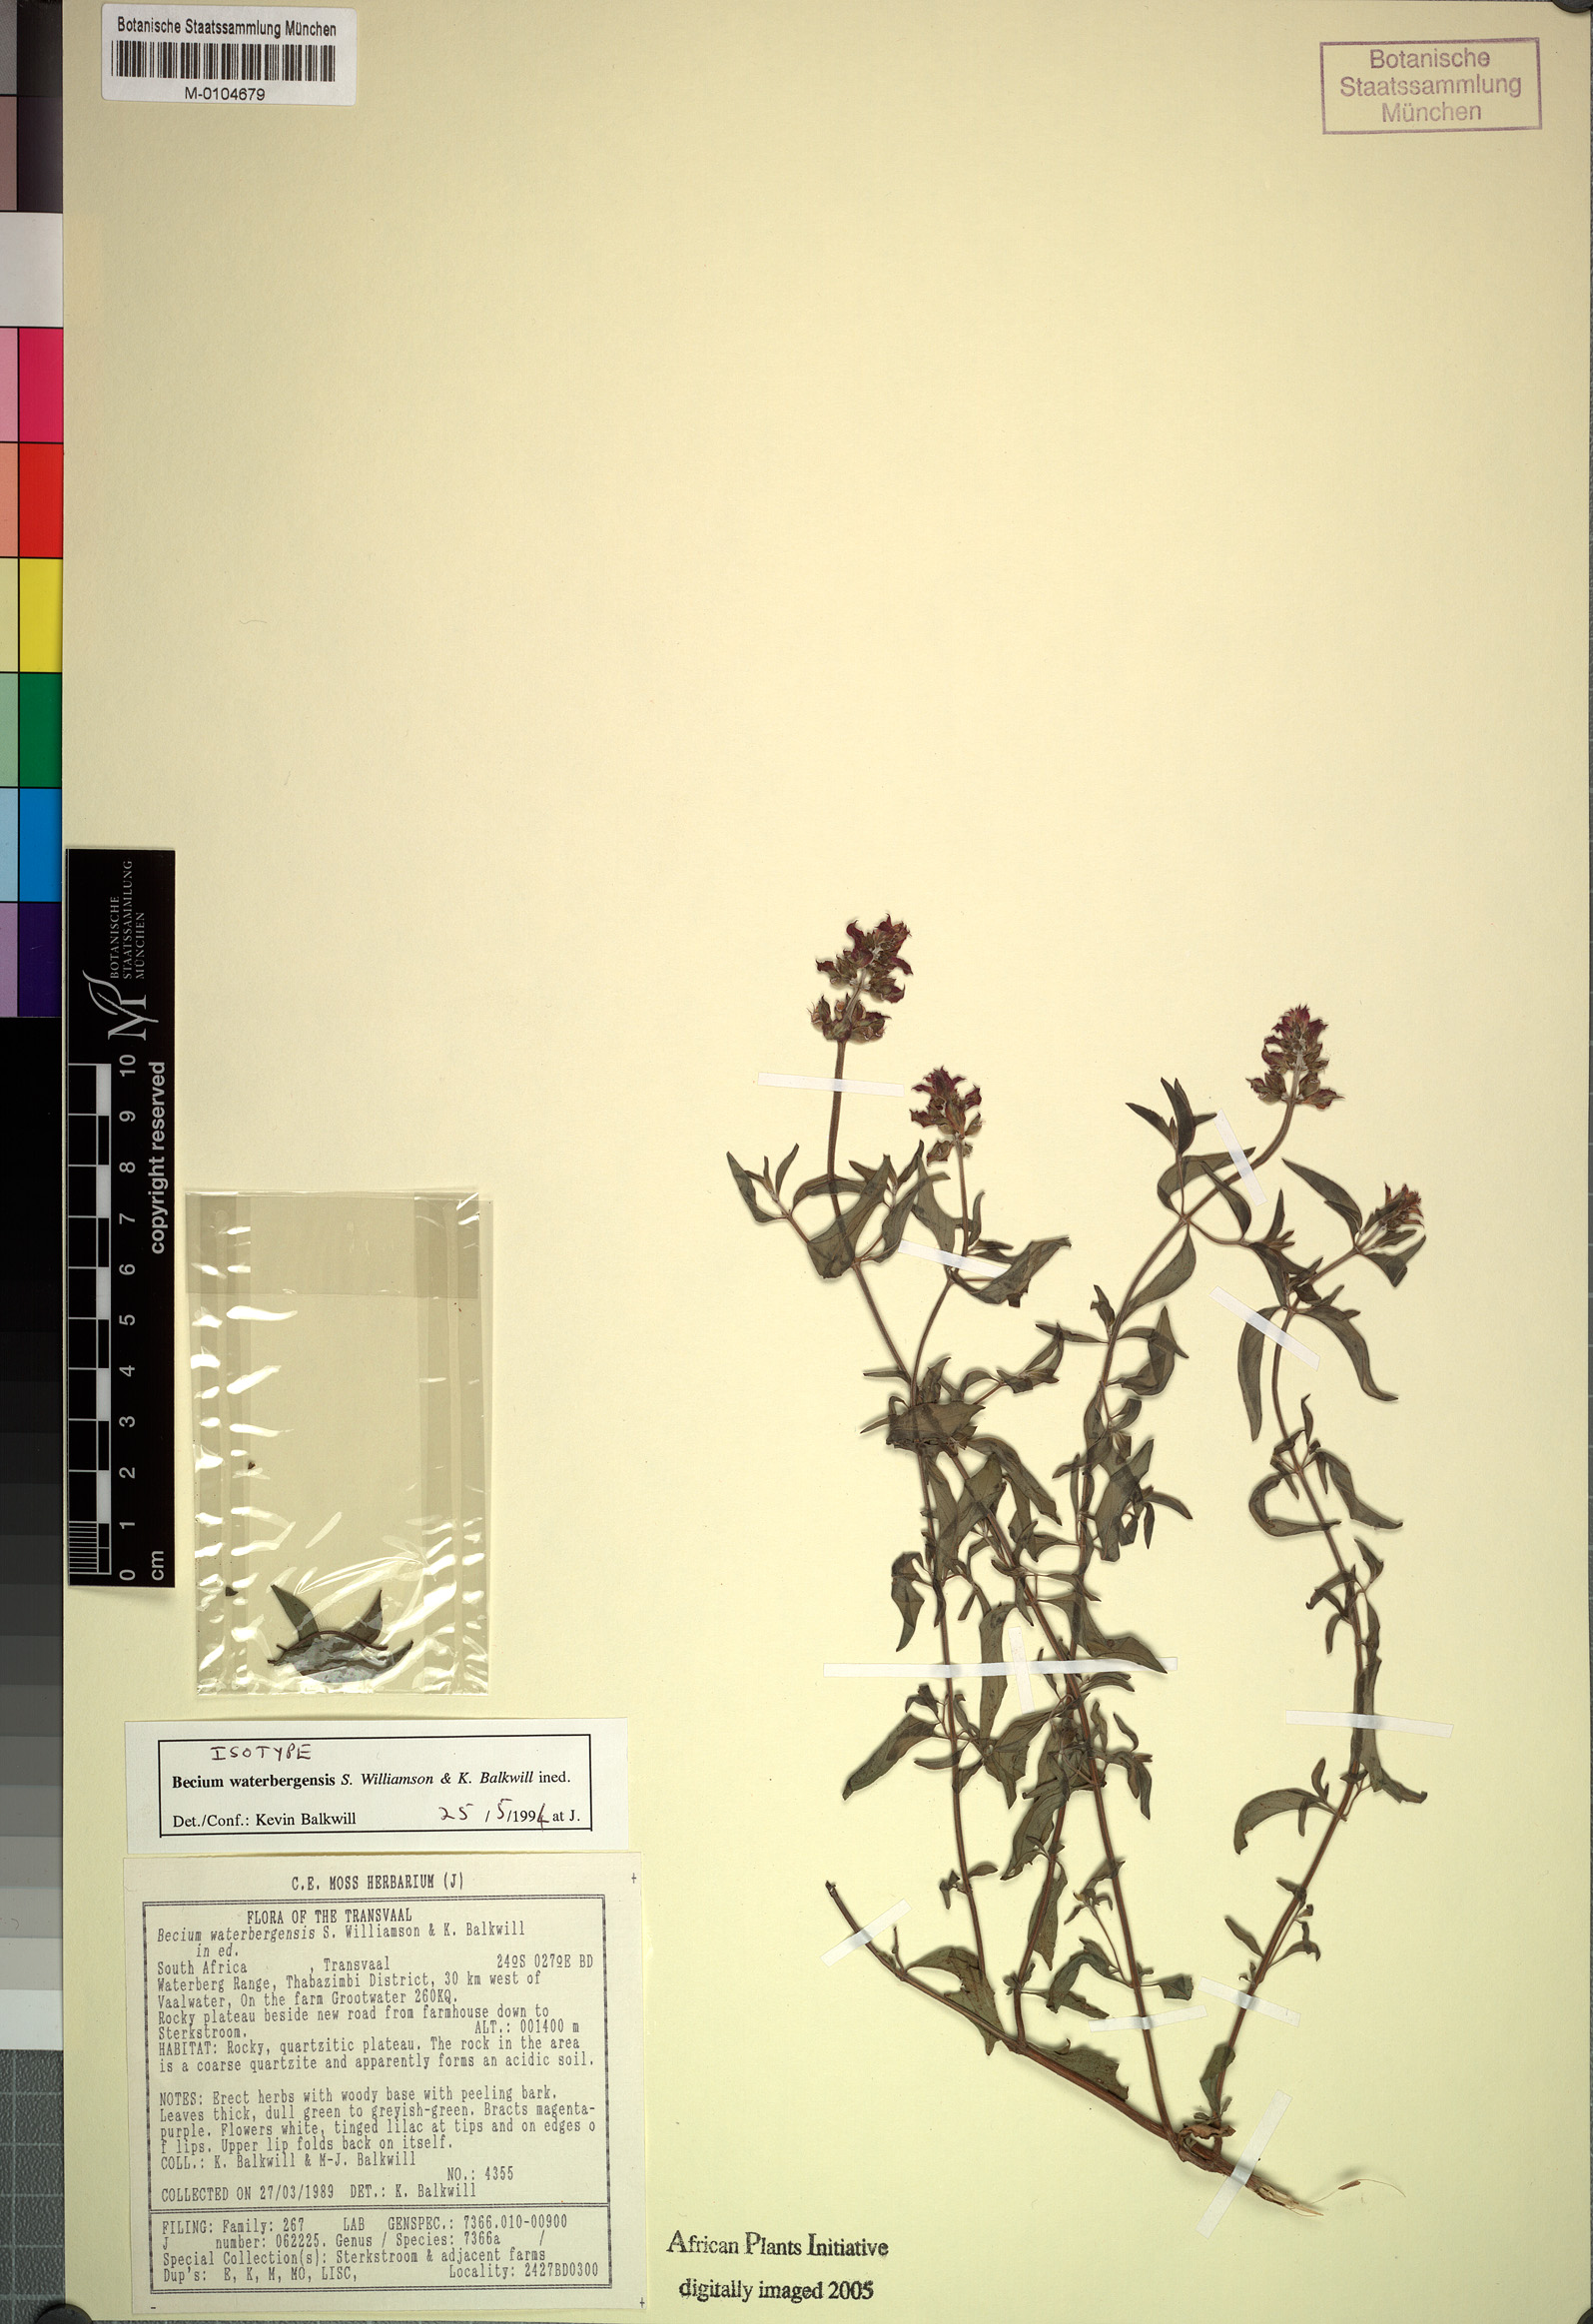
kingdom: Plantae
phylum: Tracheophyta
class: Magnoliopsida
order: Lamiales
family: Lamiaceae
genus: Ocimum
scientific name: Ocimum waterbergense
